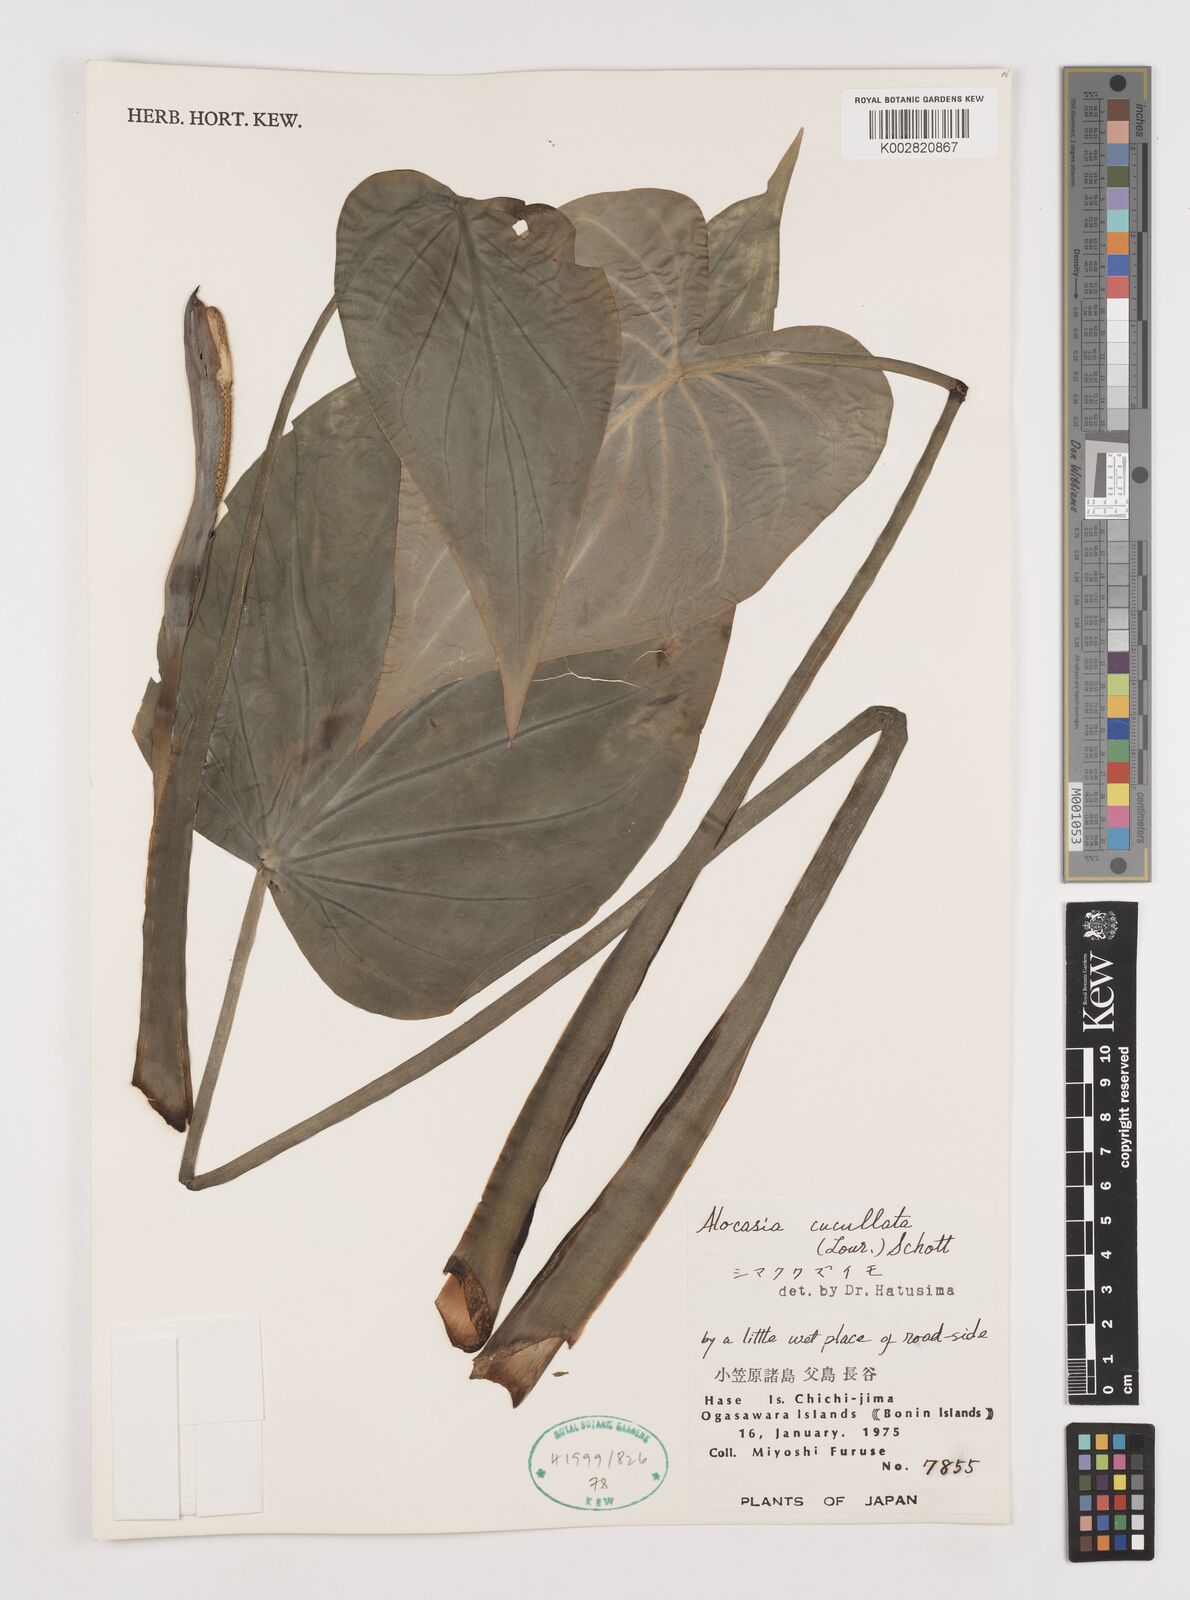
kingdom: Plantae
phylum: Tracheophyta
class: Liliopsida
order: Alismatales
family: Araceae
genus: Alocasia
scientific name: Alocasia cucullata
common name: Buddha's hand
